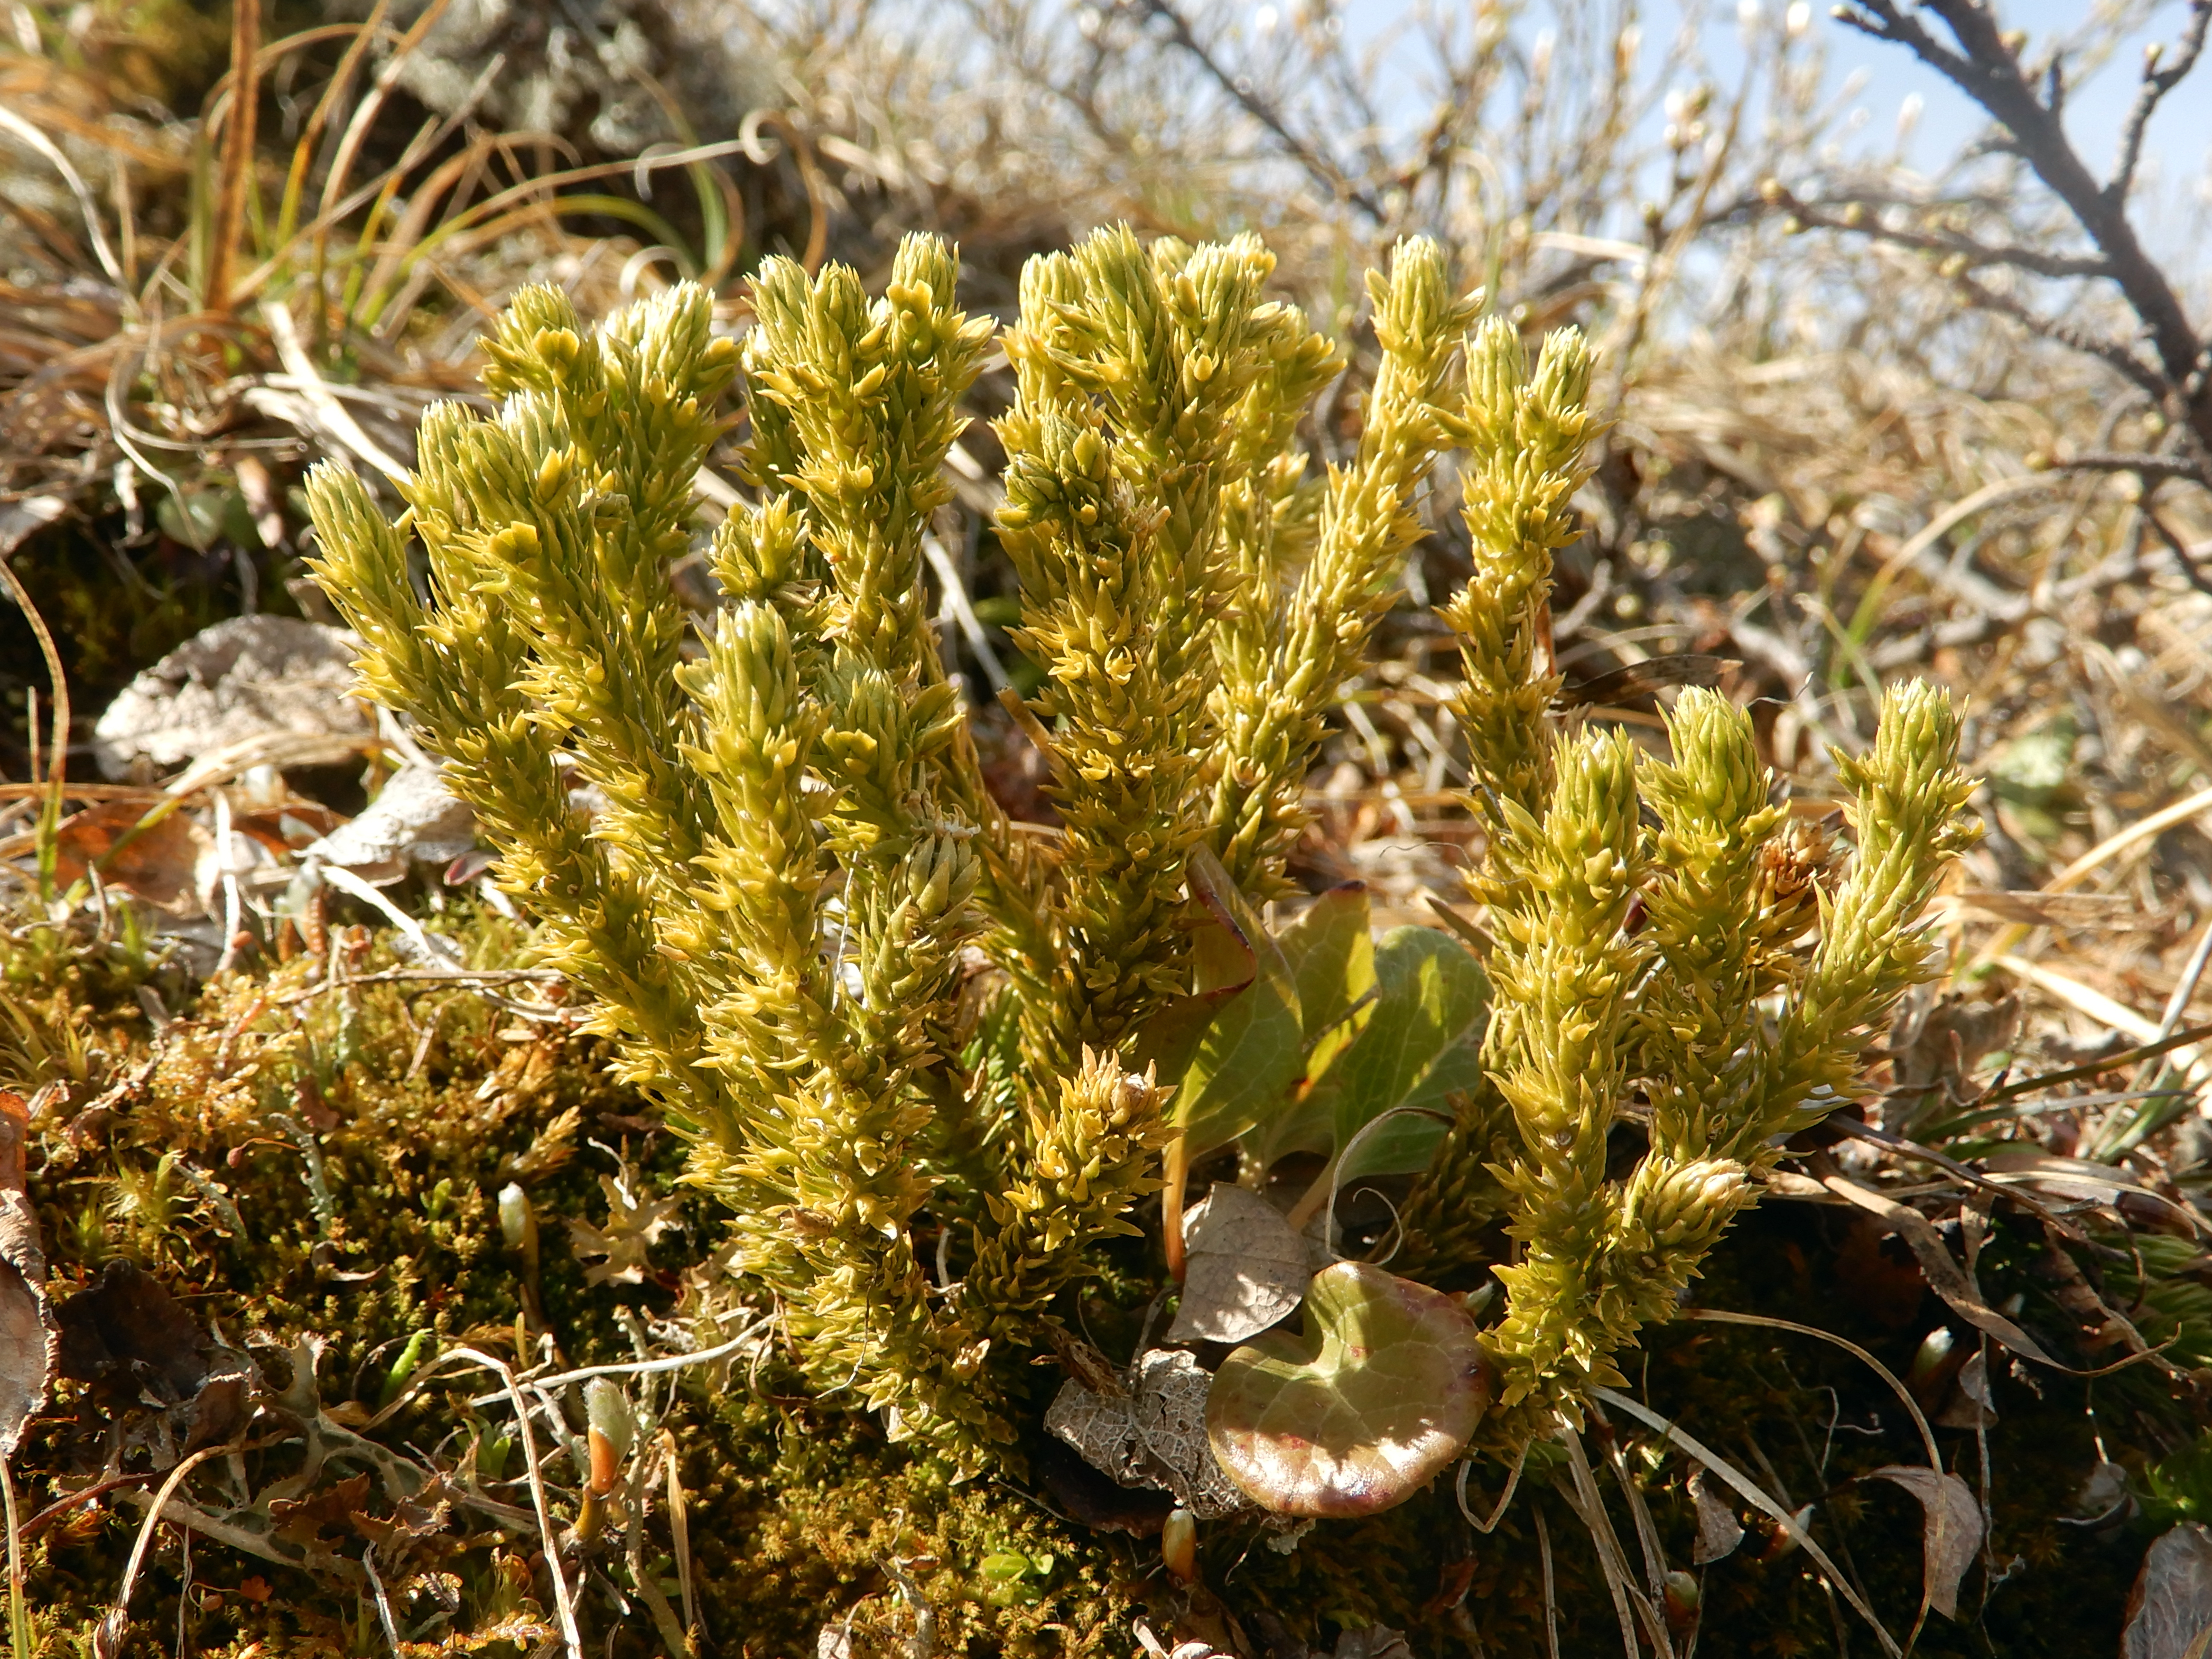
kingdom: Plantae
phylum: Tracheophyta
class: Lycopodiopsida
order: Lycopodiales
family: Lycopodiaceae
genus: Huperzia
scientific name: Huperzia selago
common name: Northern firmoss
